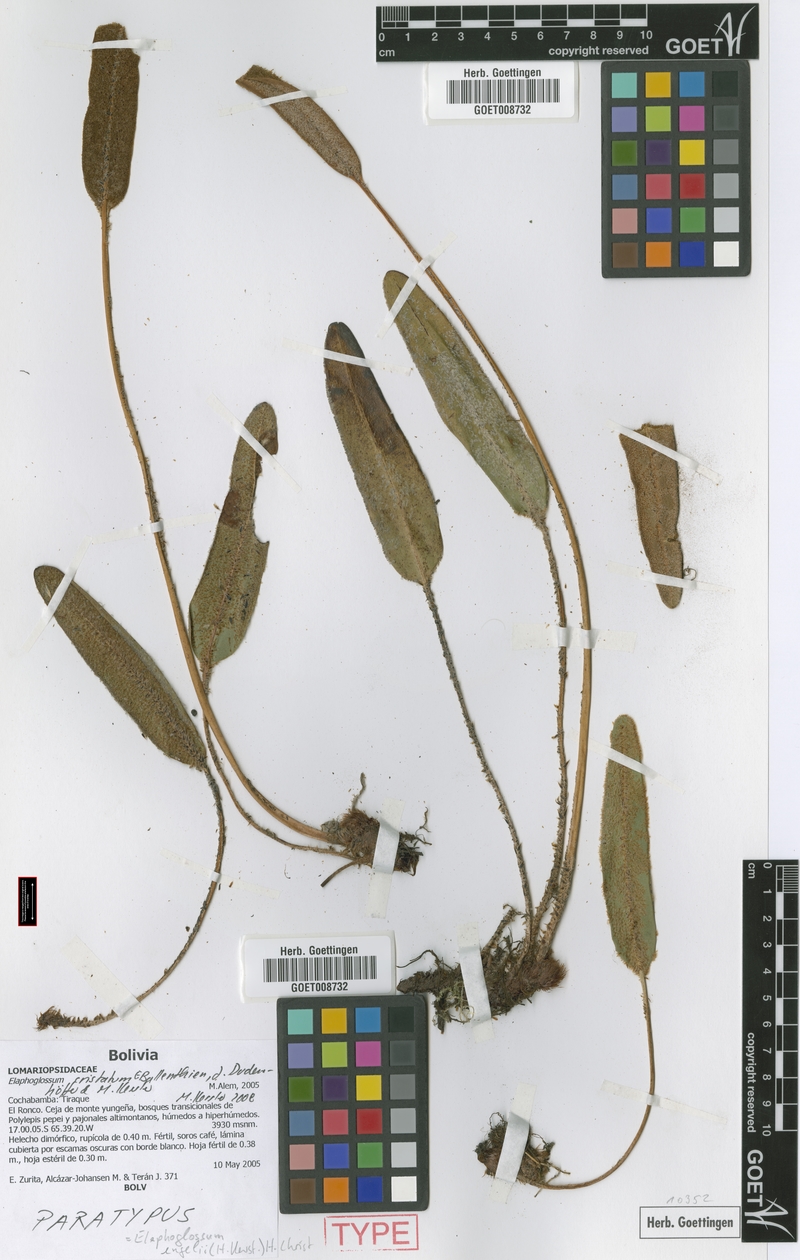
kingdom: Plantae
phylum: Tracheophyta
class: Polypodiopsida
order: Polypodiales
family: Dryopteridaceae
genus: Elaphoglossum
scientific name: Elaphoglossum engelii
